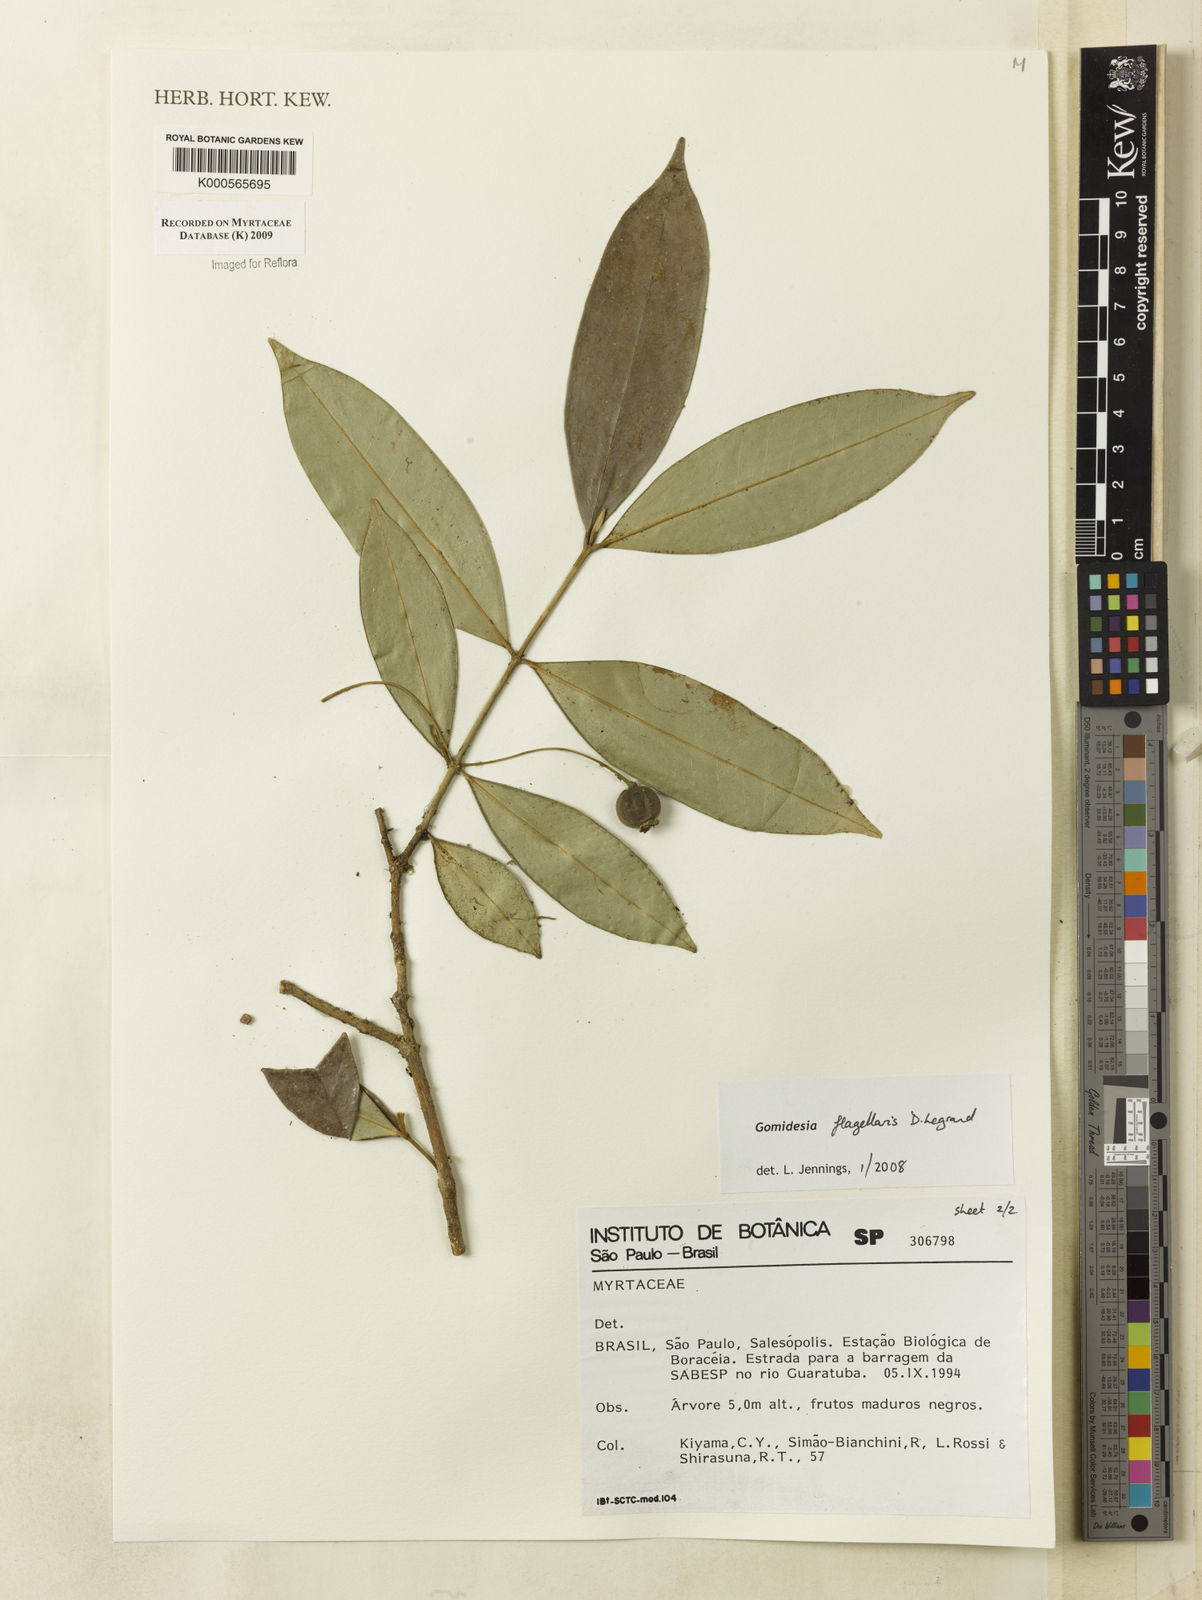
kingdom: Plantae
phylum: Tracheophyta
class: Magnoliopsida
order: Myrtales
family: Myrtaceae
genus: Myrcia
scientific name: Myrcia flagellaris
